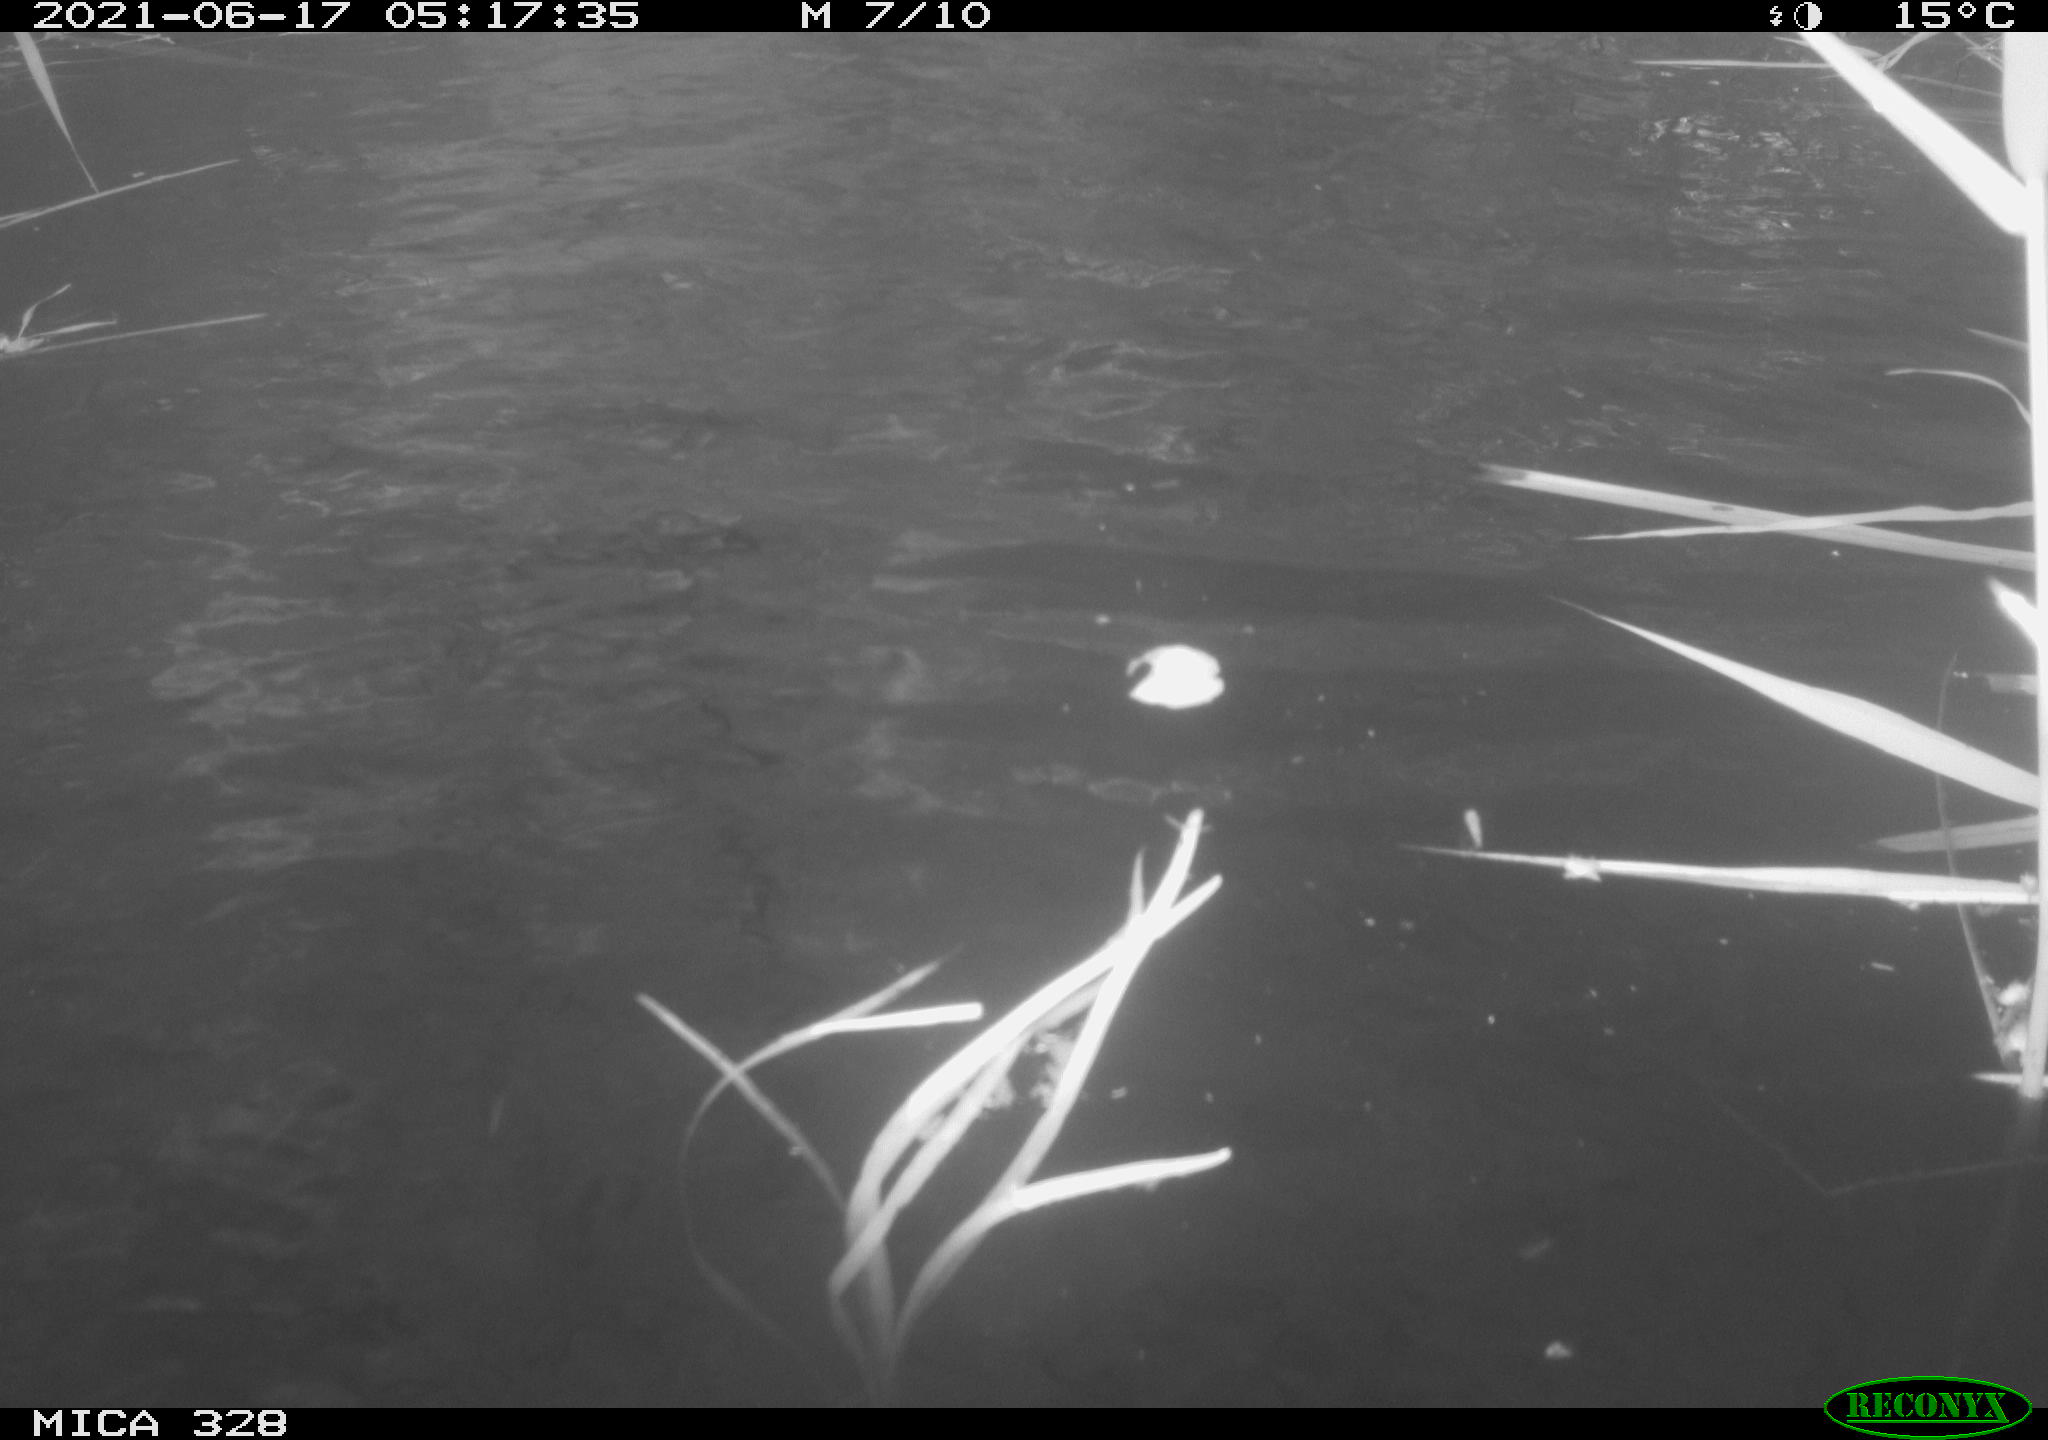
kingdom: Animalia
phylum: Chordata
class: Aves
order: Anseriformes
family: Anatidae
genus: Aix
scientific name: Aix galericulata
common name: Mandarin duck
